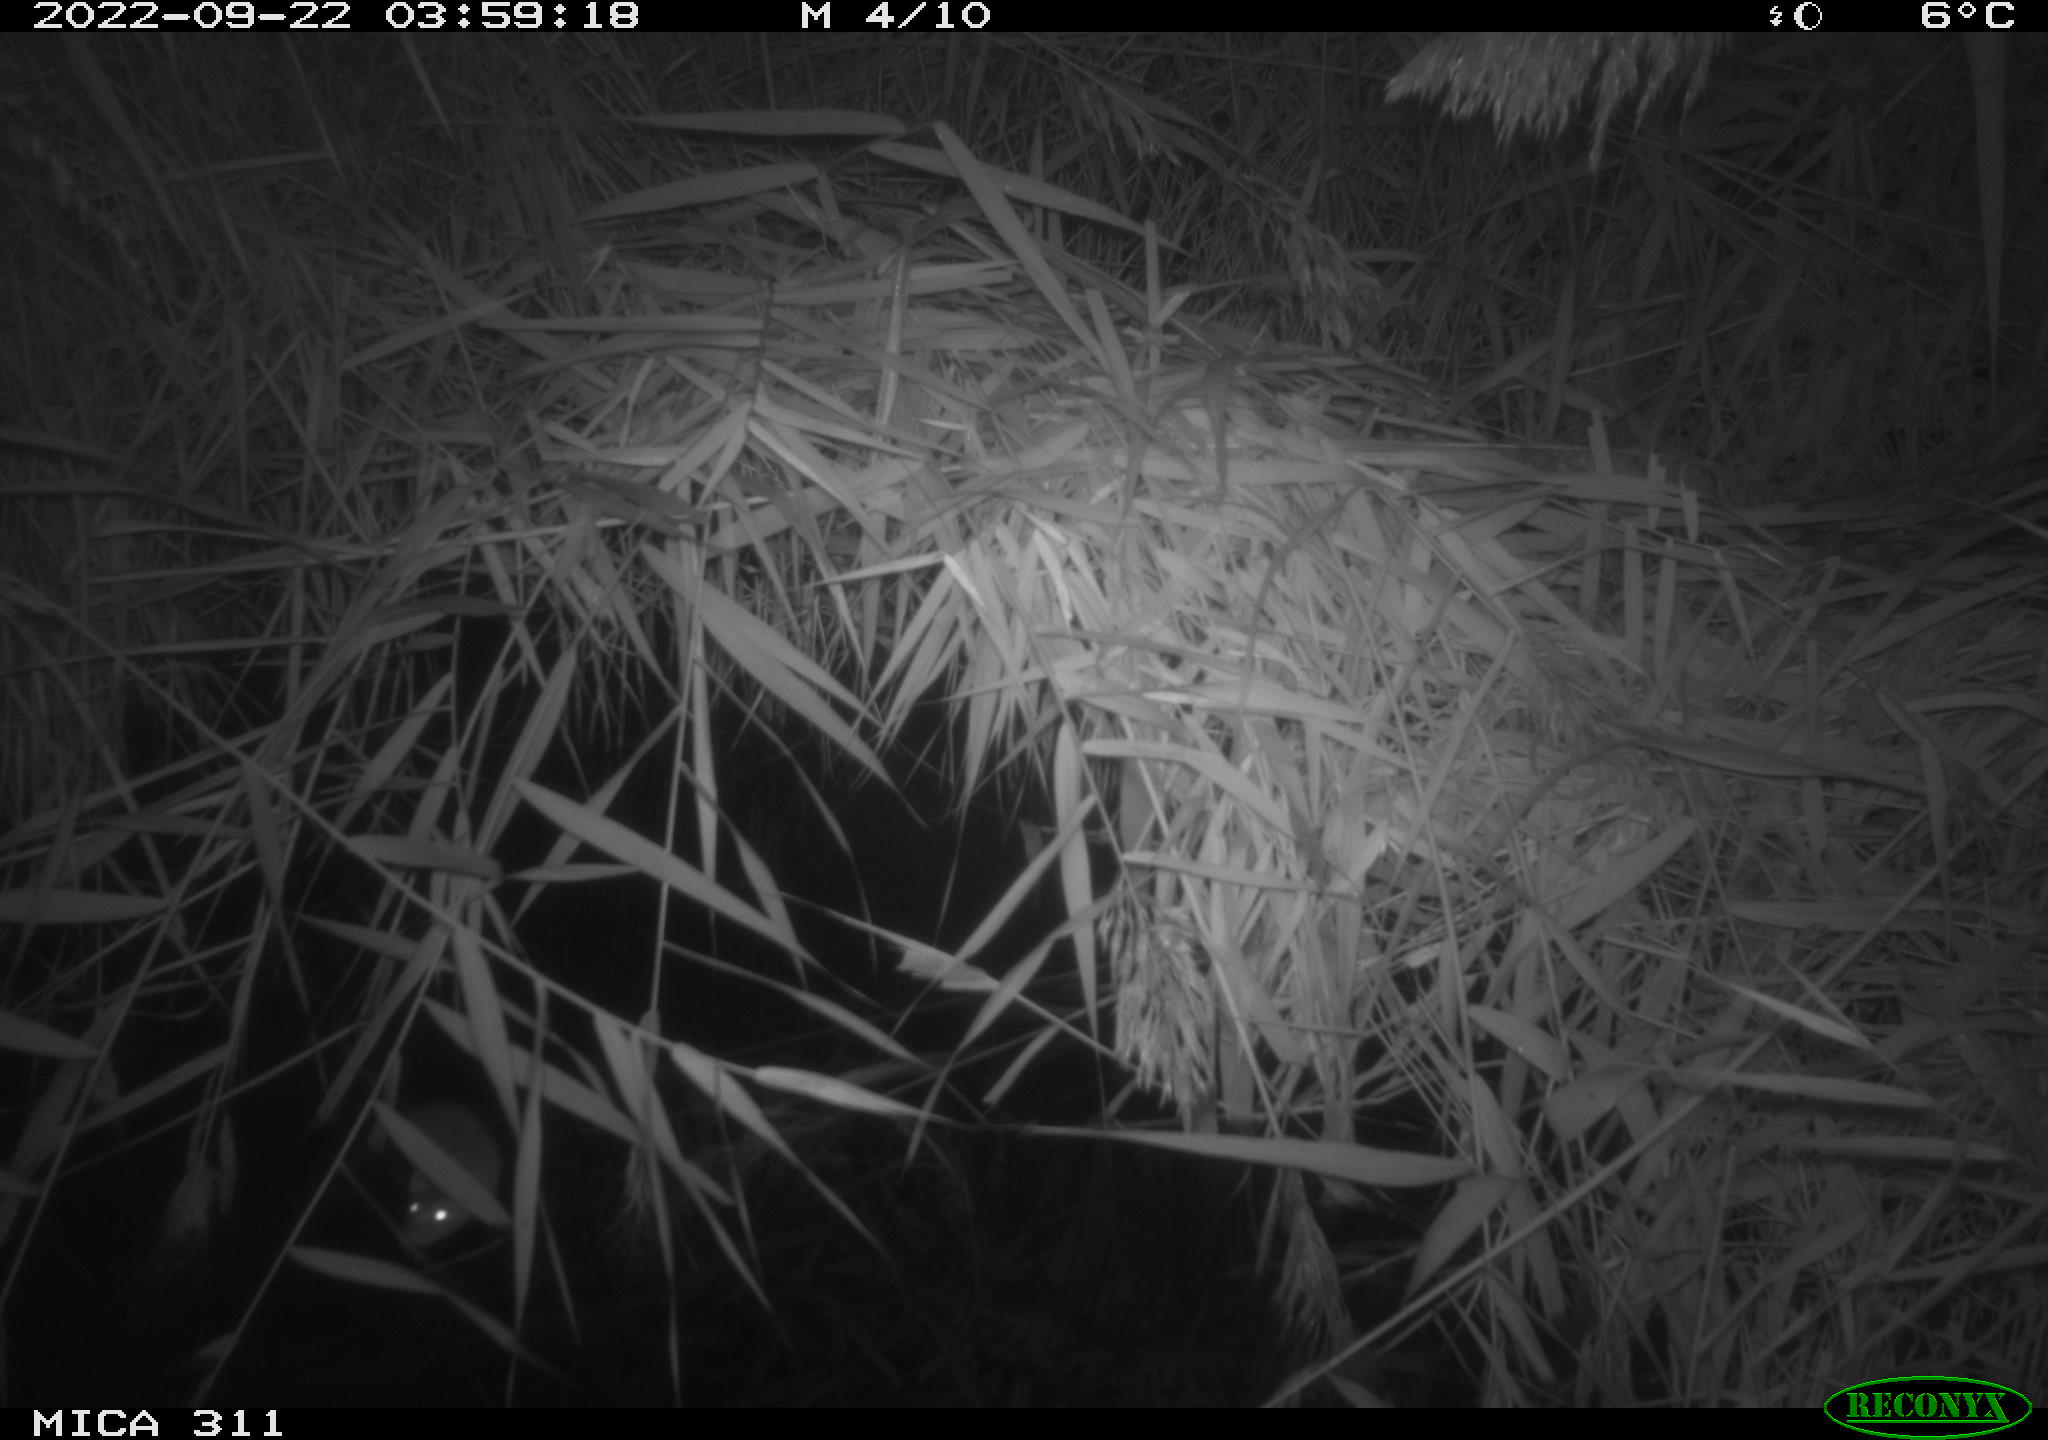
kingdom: Animalia
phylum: Chordata
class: Mammalia
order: Rodentia
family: Muridae
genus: Rattus
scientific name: Rattus norvegicus
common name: Brown rat
